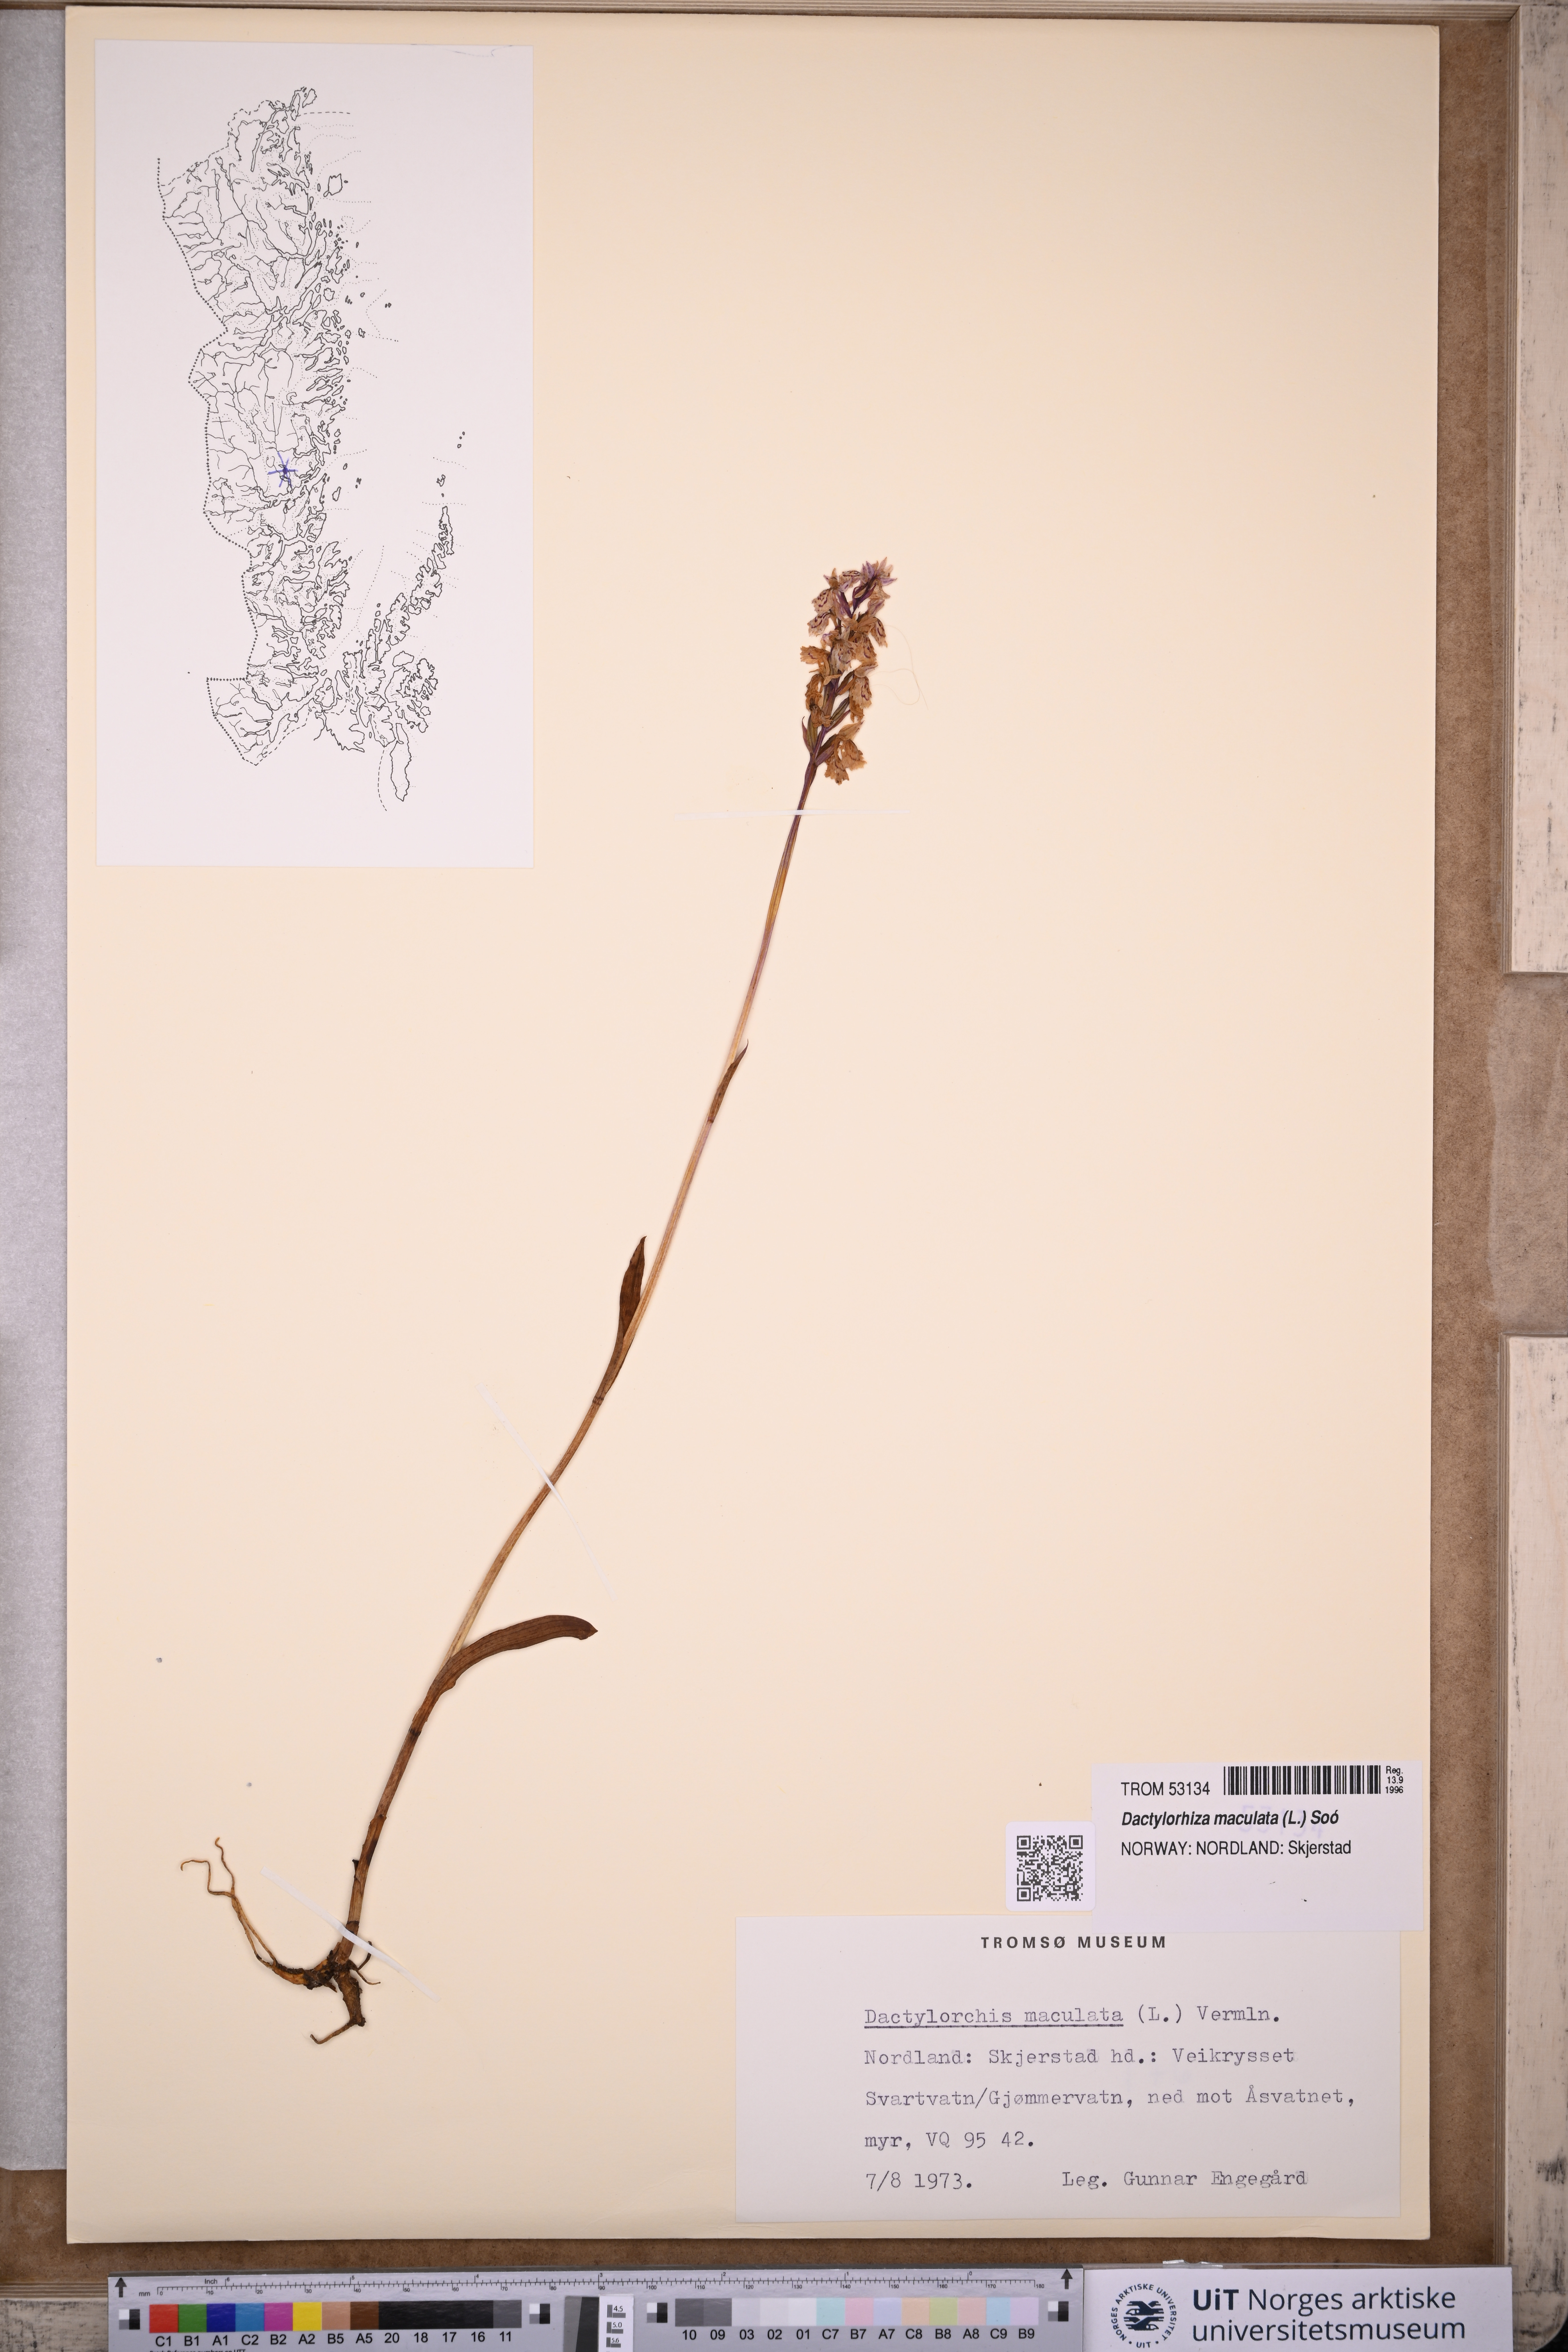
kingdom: Plantae
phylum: Tracheophyta
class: Liliopsida
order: Asparagales
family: Orchidaceae
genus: Dactylorhiza
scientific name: Dactylorhiza maculata
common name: Heath spotted-orchid
